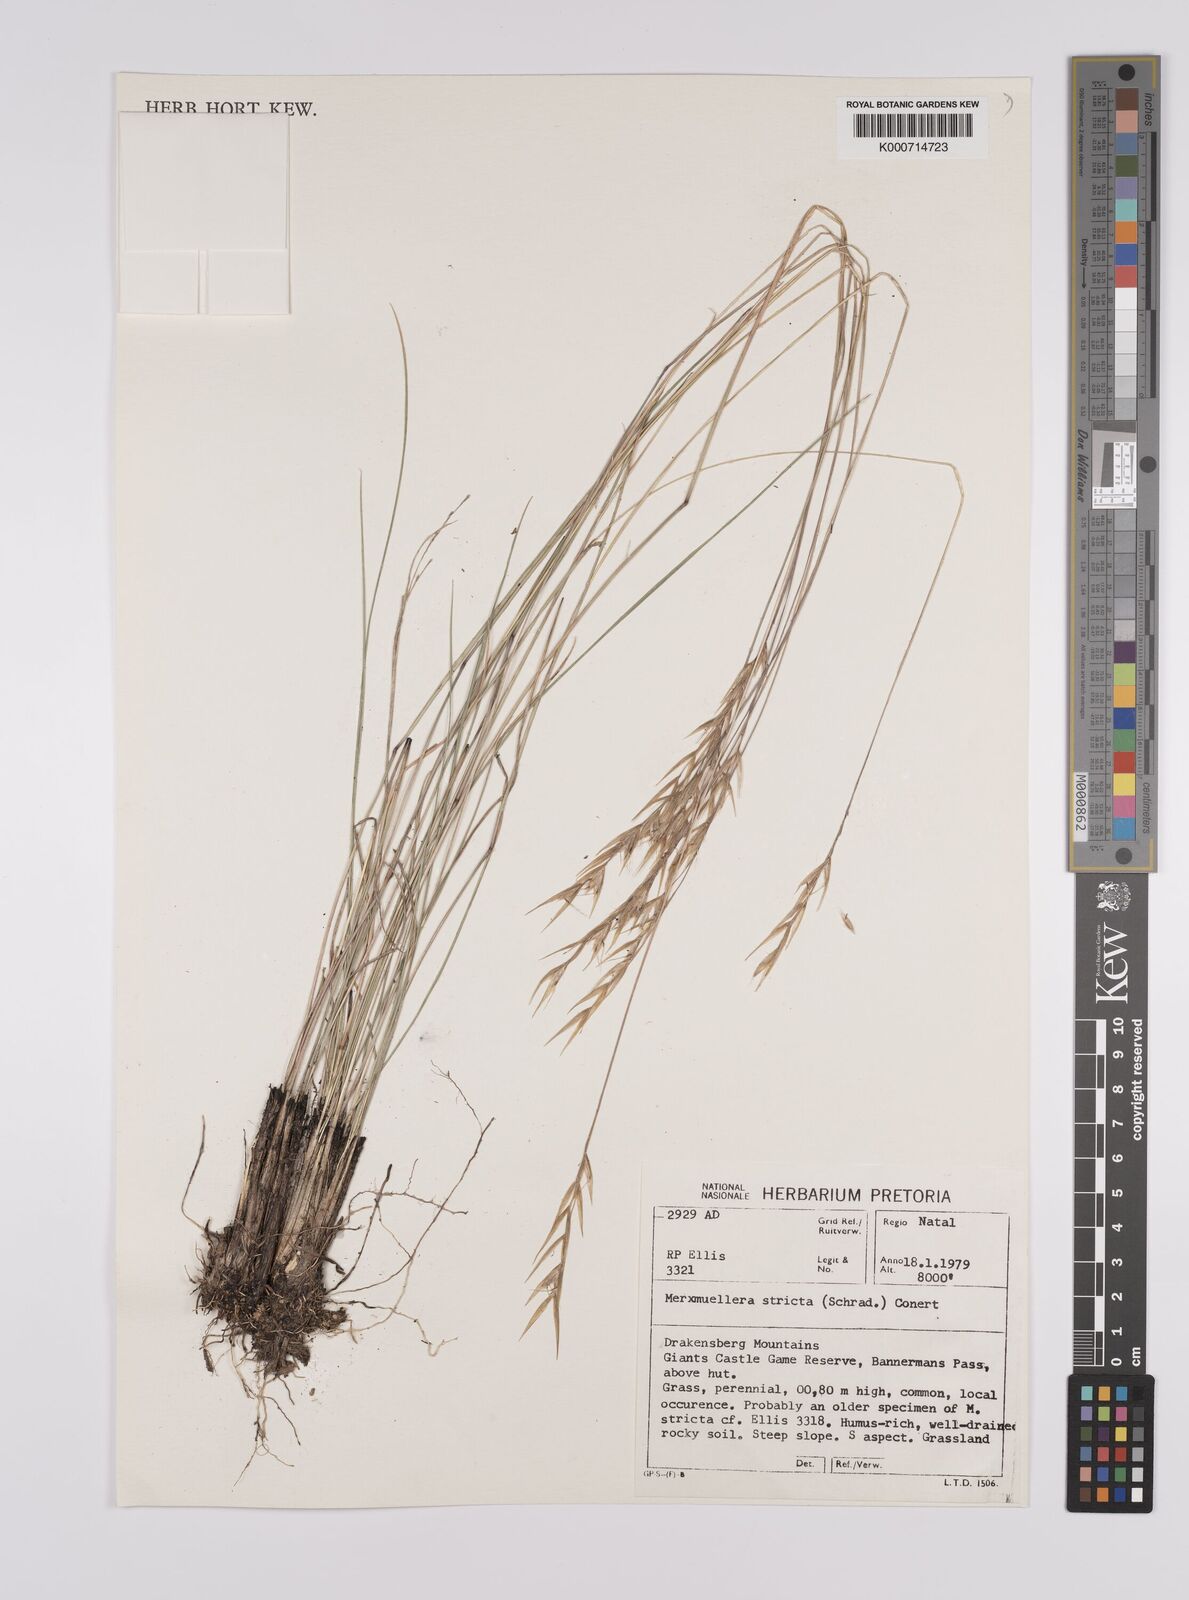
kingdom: Plantae
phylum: Tracheophyta
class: Liliopsida
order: Poales
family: Poaceae
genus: Rytidosperma
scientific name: Rytidosperma
